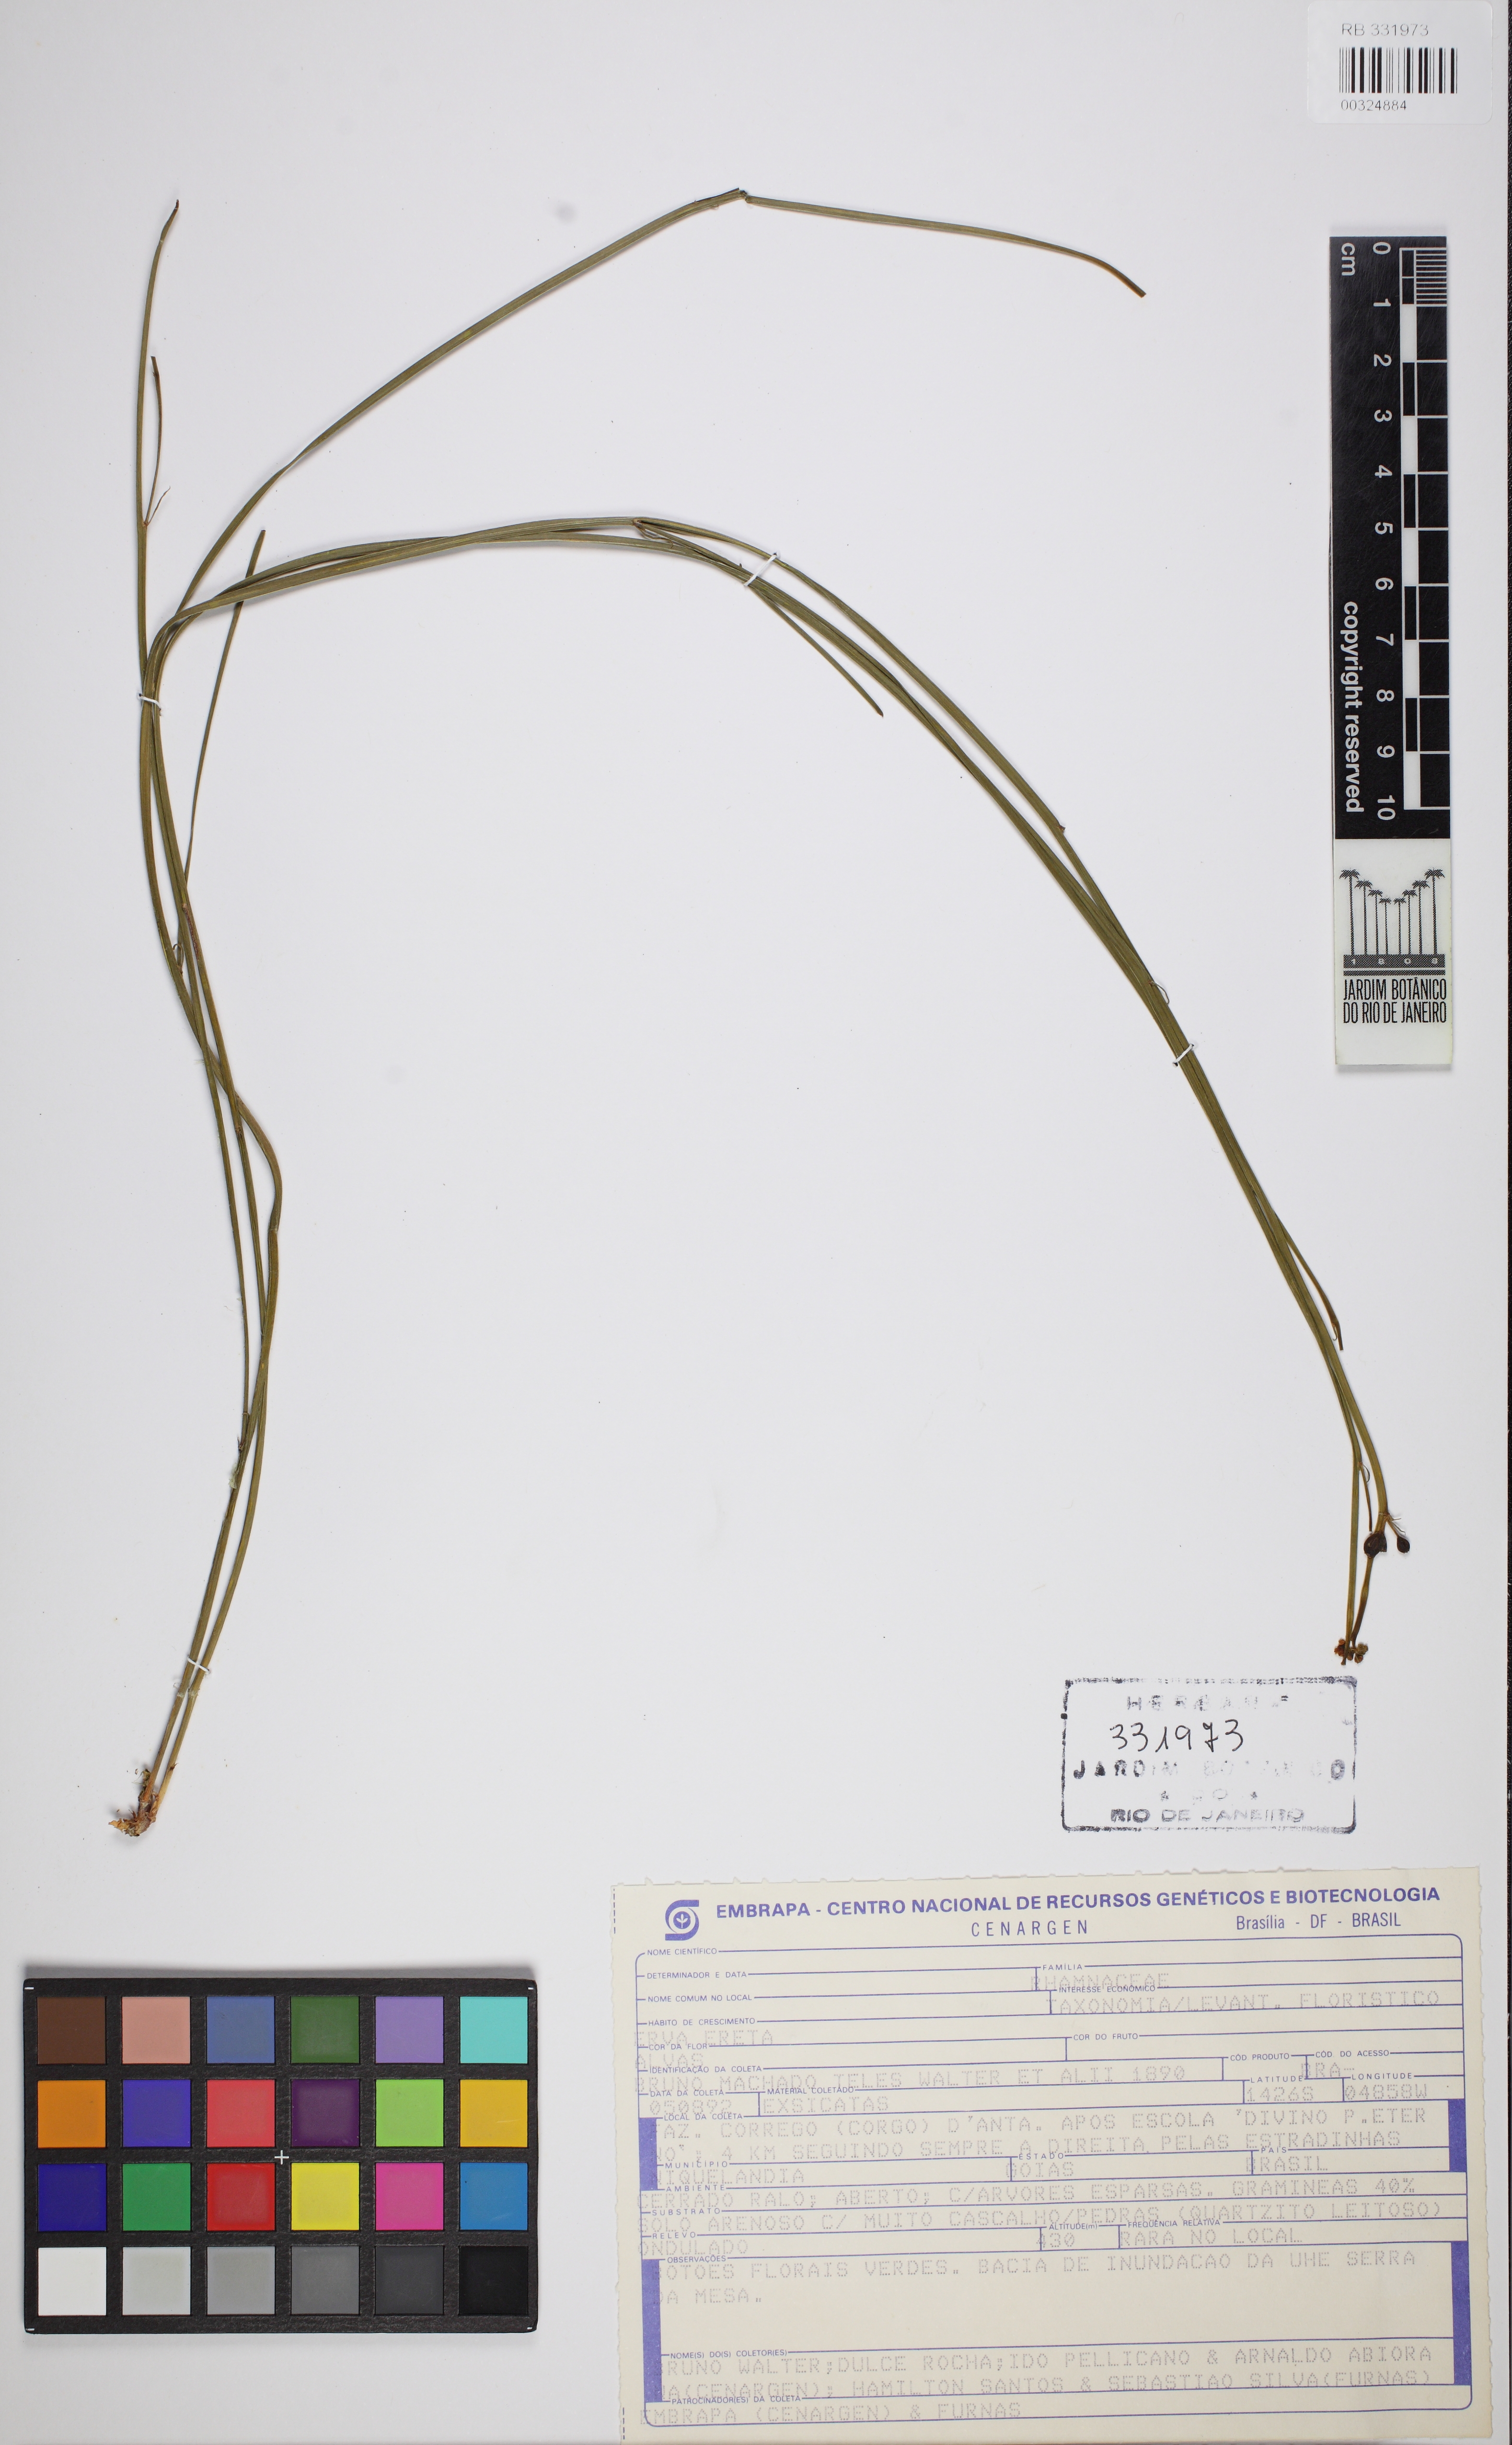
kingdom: Plantae
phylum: Tracheophyta
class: Magnoliopsida
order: Rosales
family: Rhamnaceae
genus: Crumenaria
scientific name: Crumenaria choretroides
